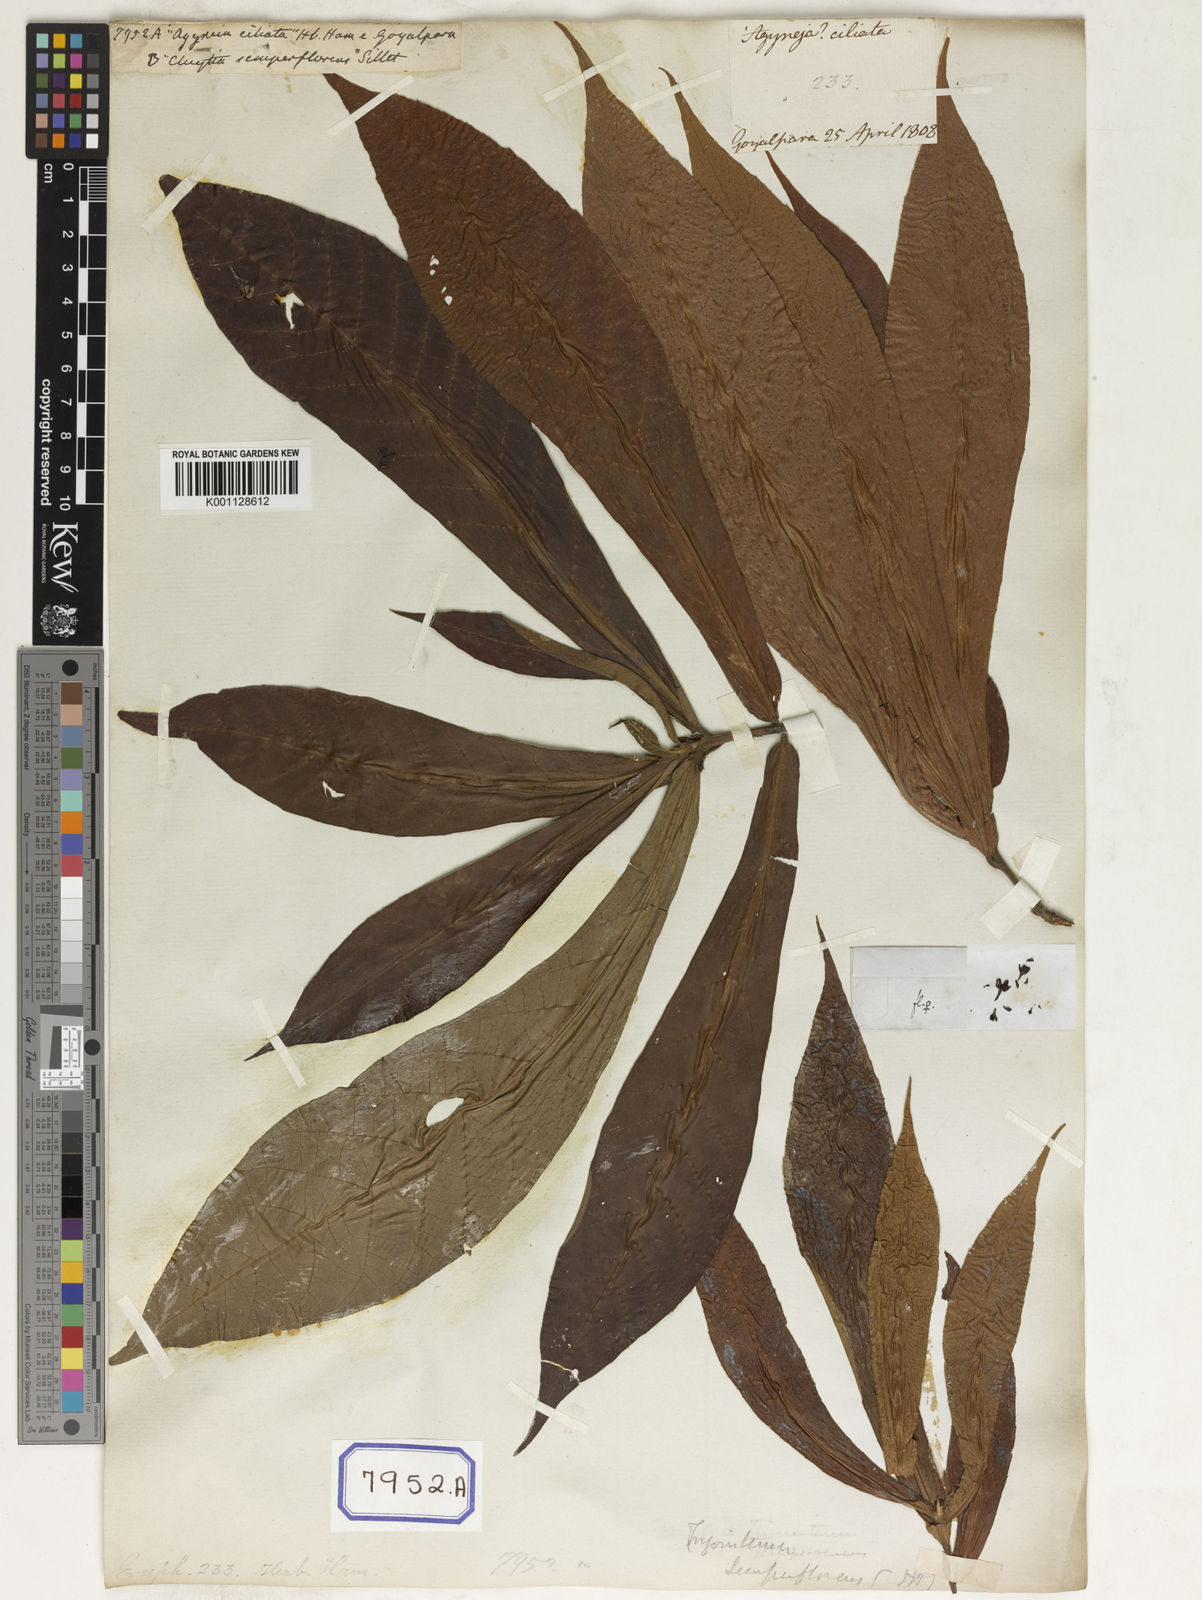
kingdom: Plantae
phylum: Tracheophyta
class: Magnoliopsida
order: Malpighiales
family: Euphorbiaceae
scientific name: Euphorbiaceae
